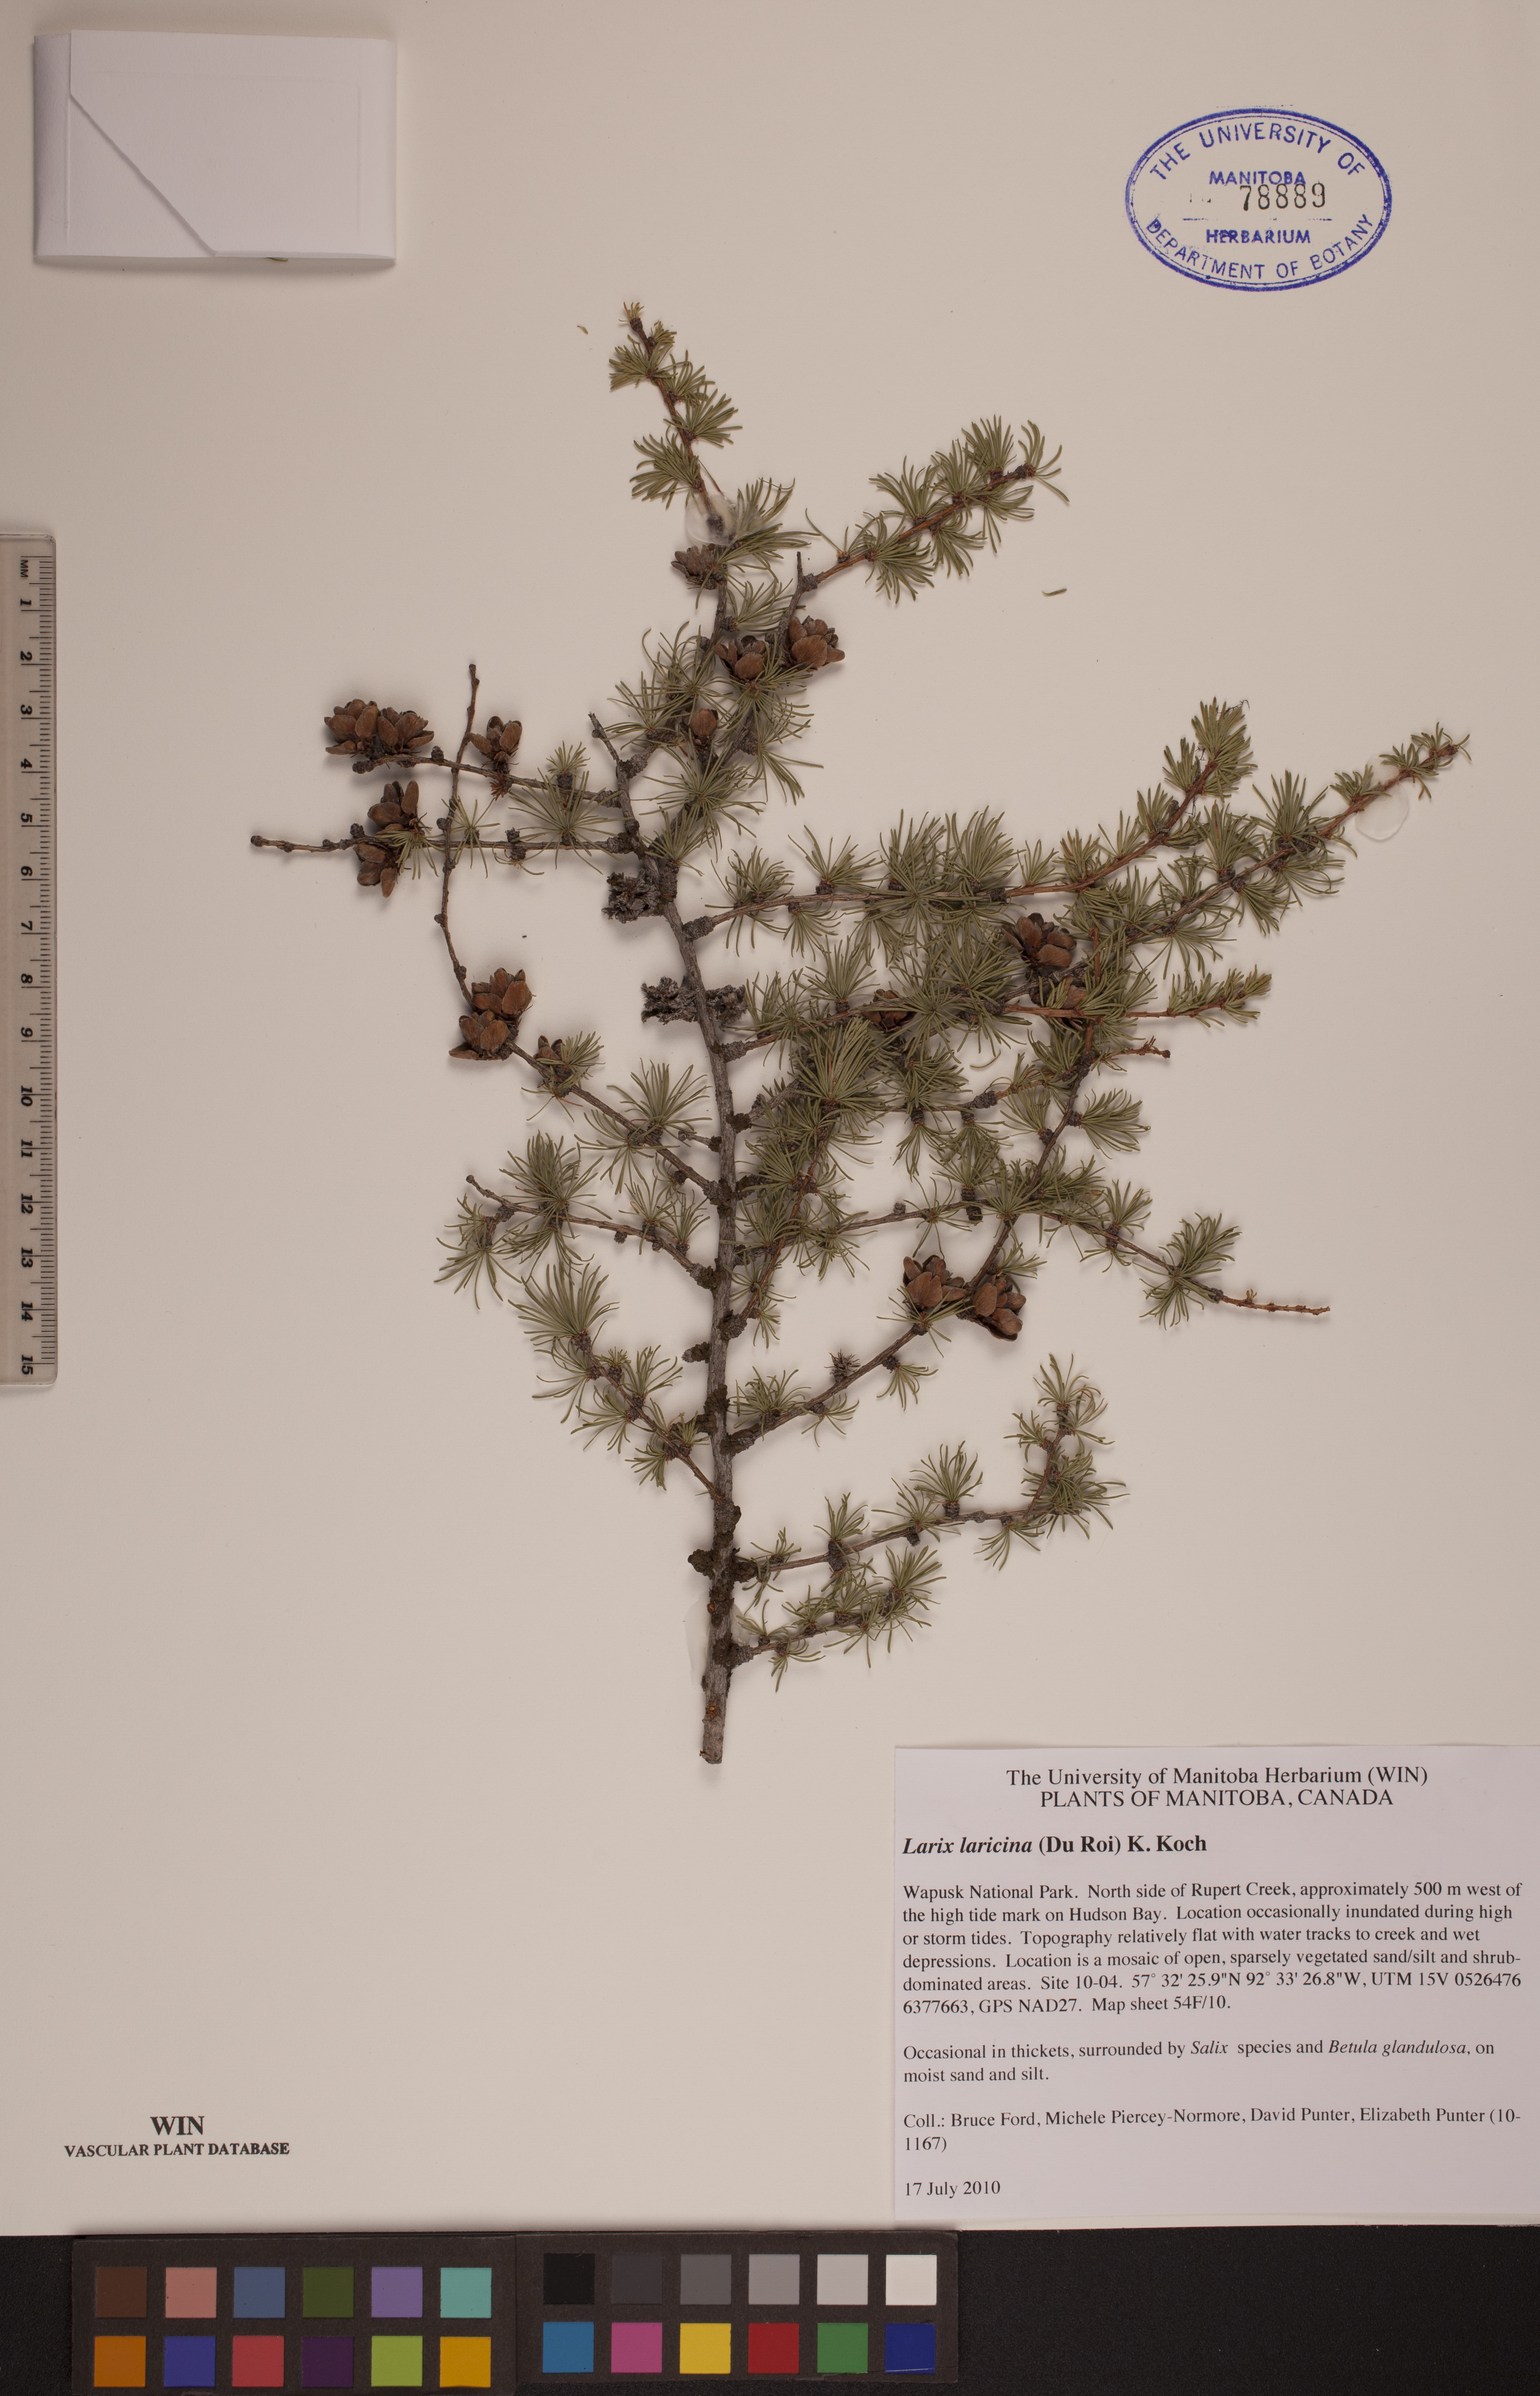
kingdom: Plantae
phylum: Tracheophyta
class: Pinopsida
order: Pinales
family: Pinaceae
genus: Larix
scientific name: Larix laricina
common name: American larch
